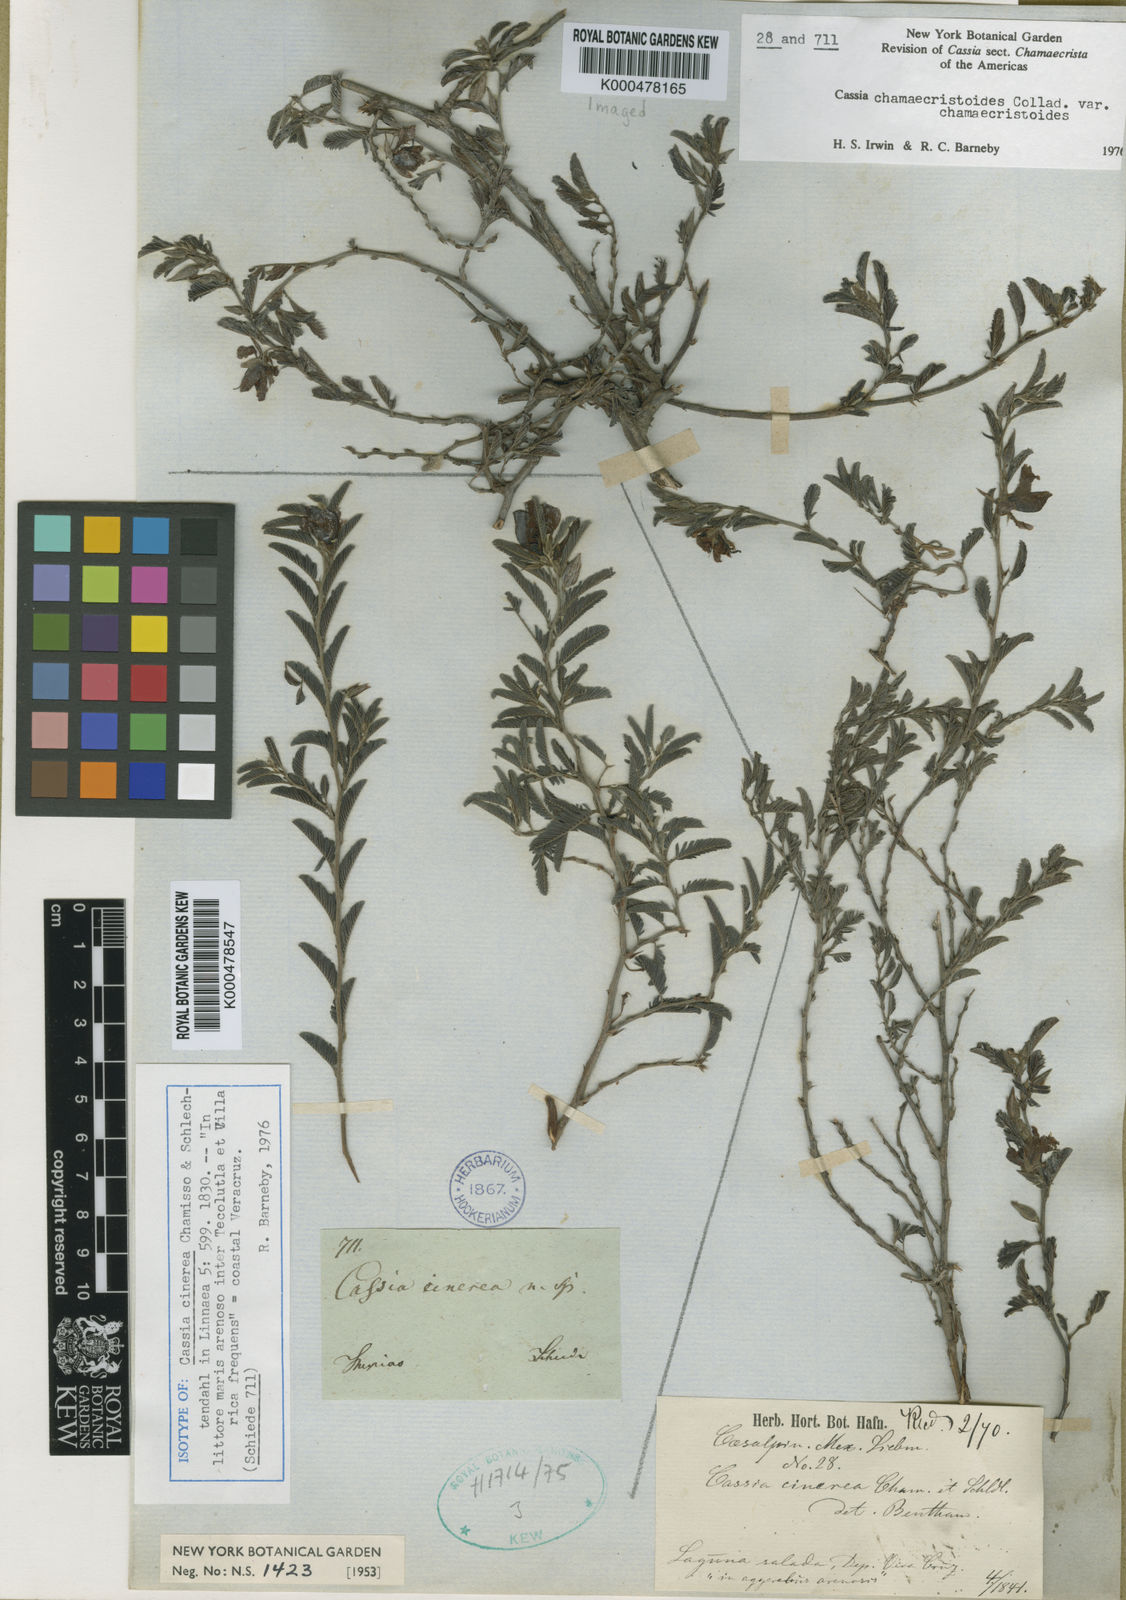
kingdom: Plantae
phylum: Tracheophyta
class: Magnoliopsida
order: Fabales
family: Fabaceae
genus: Chamaecrista
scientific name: Chamaecrista
